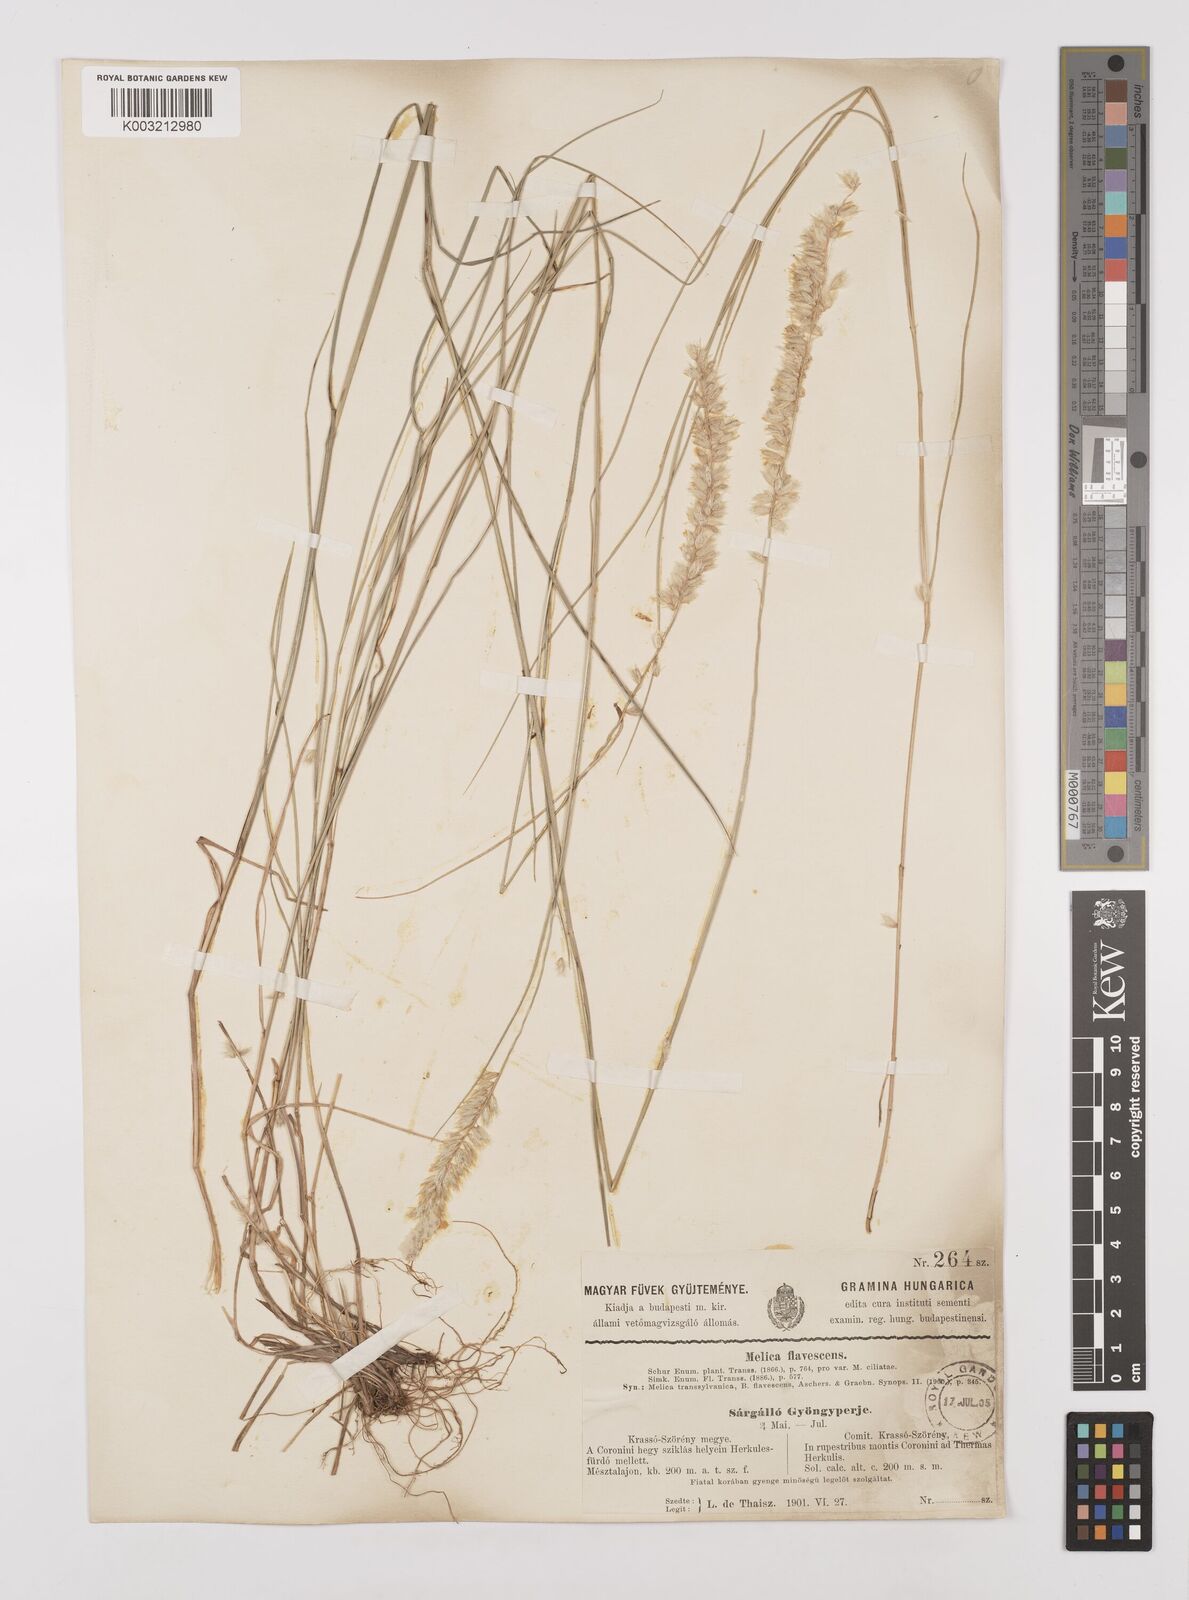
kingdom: Plantae
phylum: Tracheophyta
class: Liliopsida
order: Poales
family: Poaceae
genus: Melica
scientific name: Melica transsilvanica
